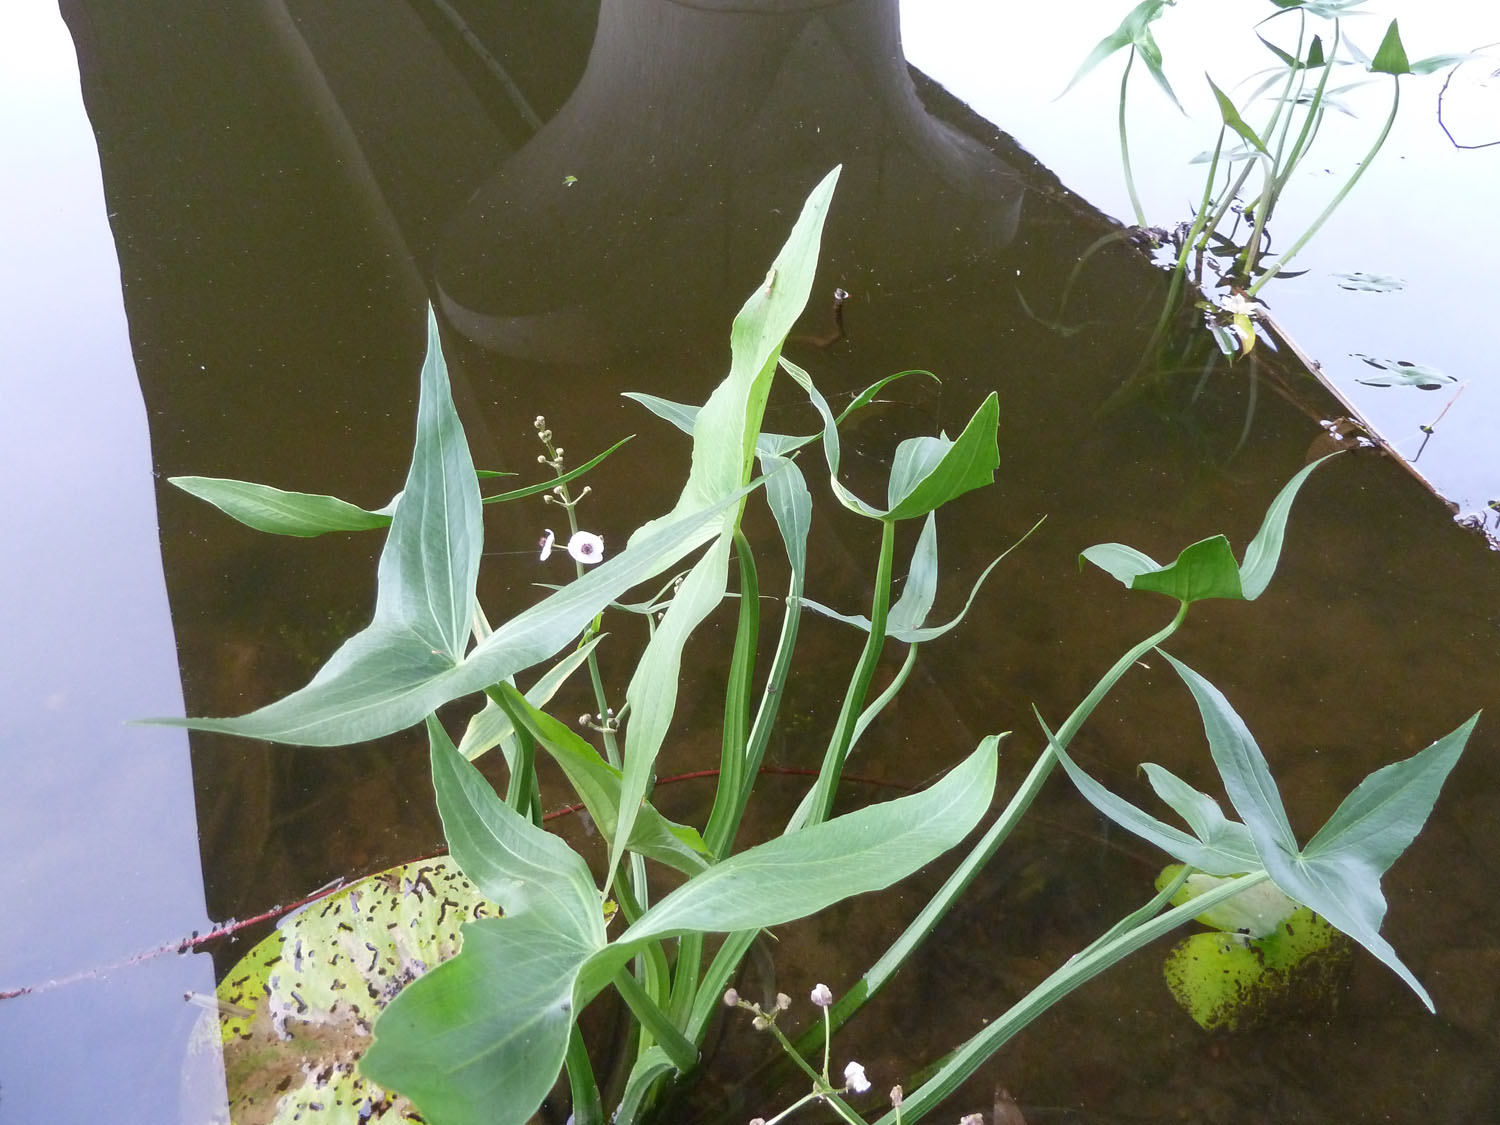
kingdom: Plantae
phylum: Tracheophyta
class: Liliopsida
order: Alismatales
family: Alismataceae
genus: Sagittaria
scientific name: Sagittaria sagittifolia
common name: Arrowhead
